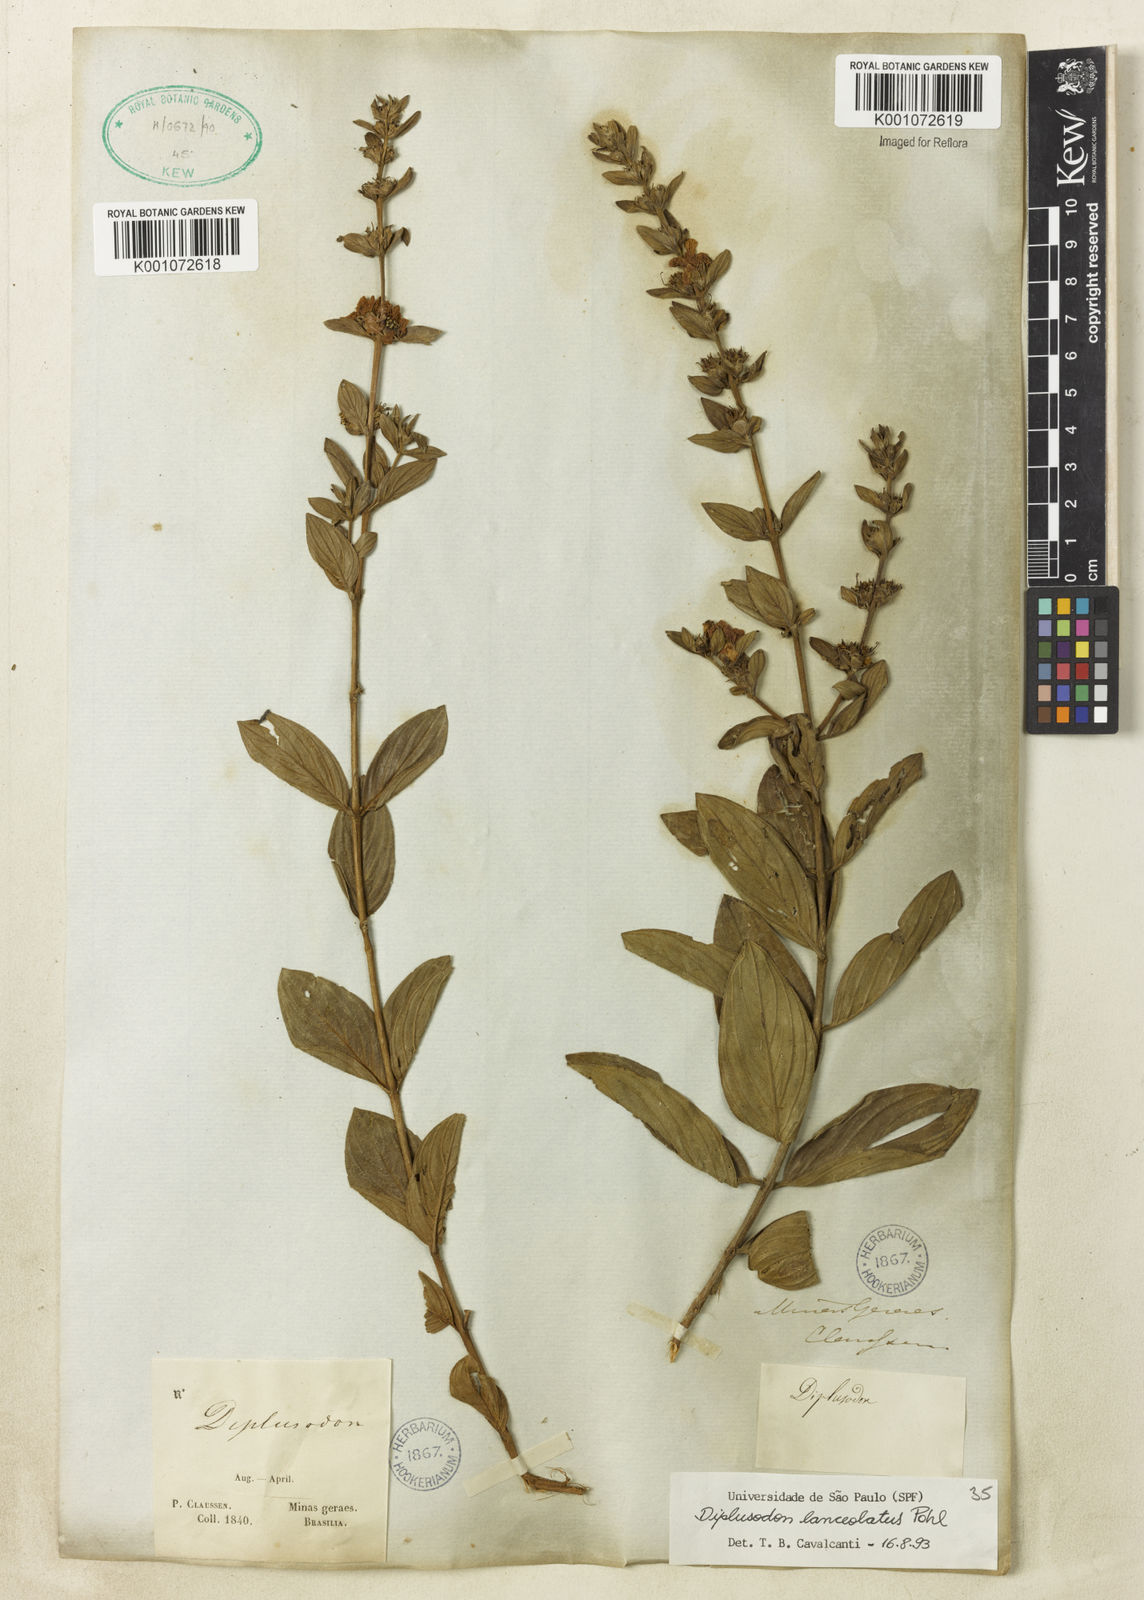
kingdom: Plantae
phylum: Tracheophyta
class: Magnoliopsida
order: Myrtales
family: Lythraceae
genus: Diplusodon
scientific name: Diplusodon lanceolatus
